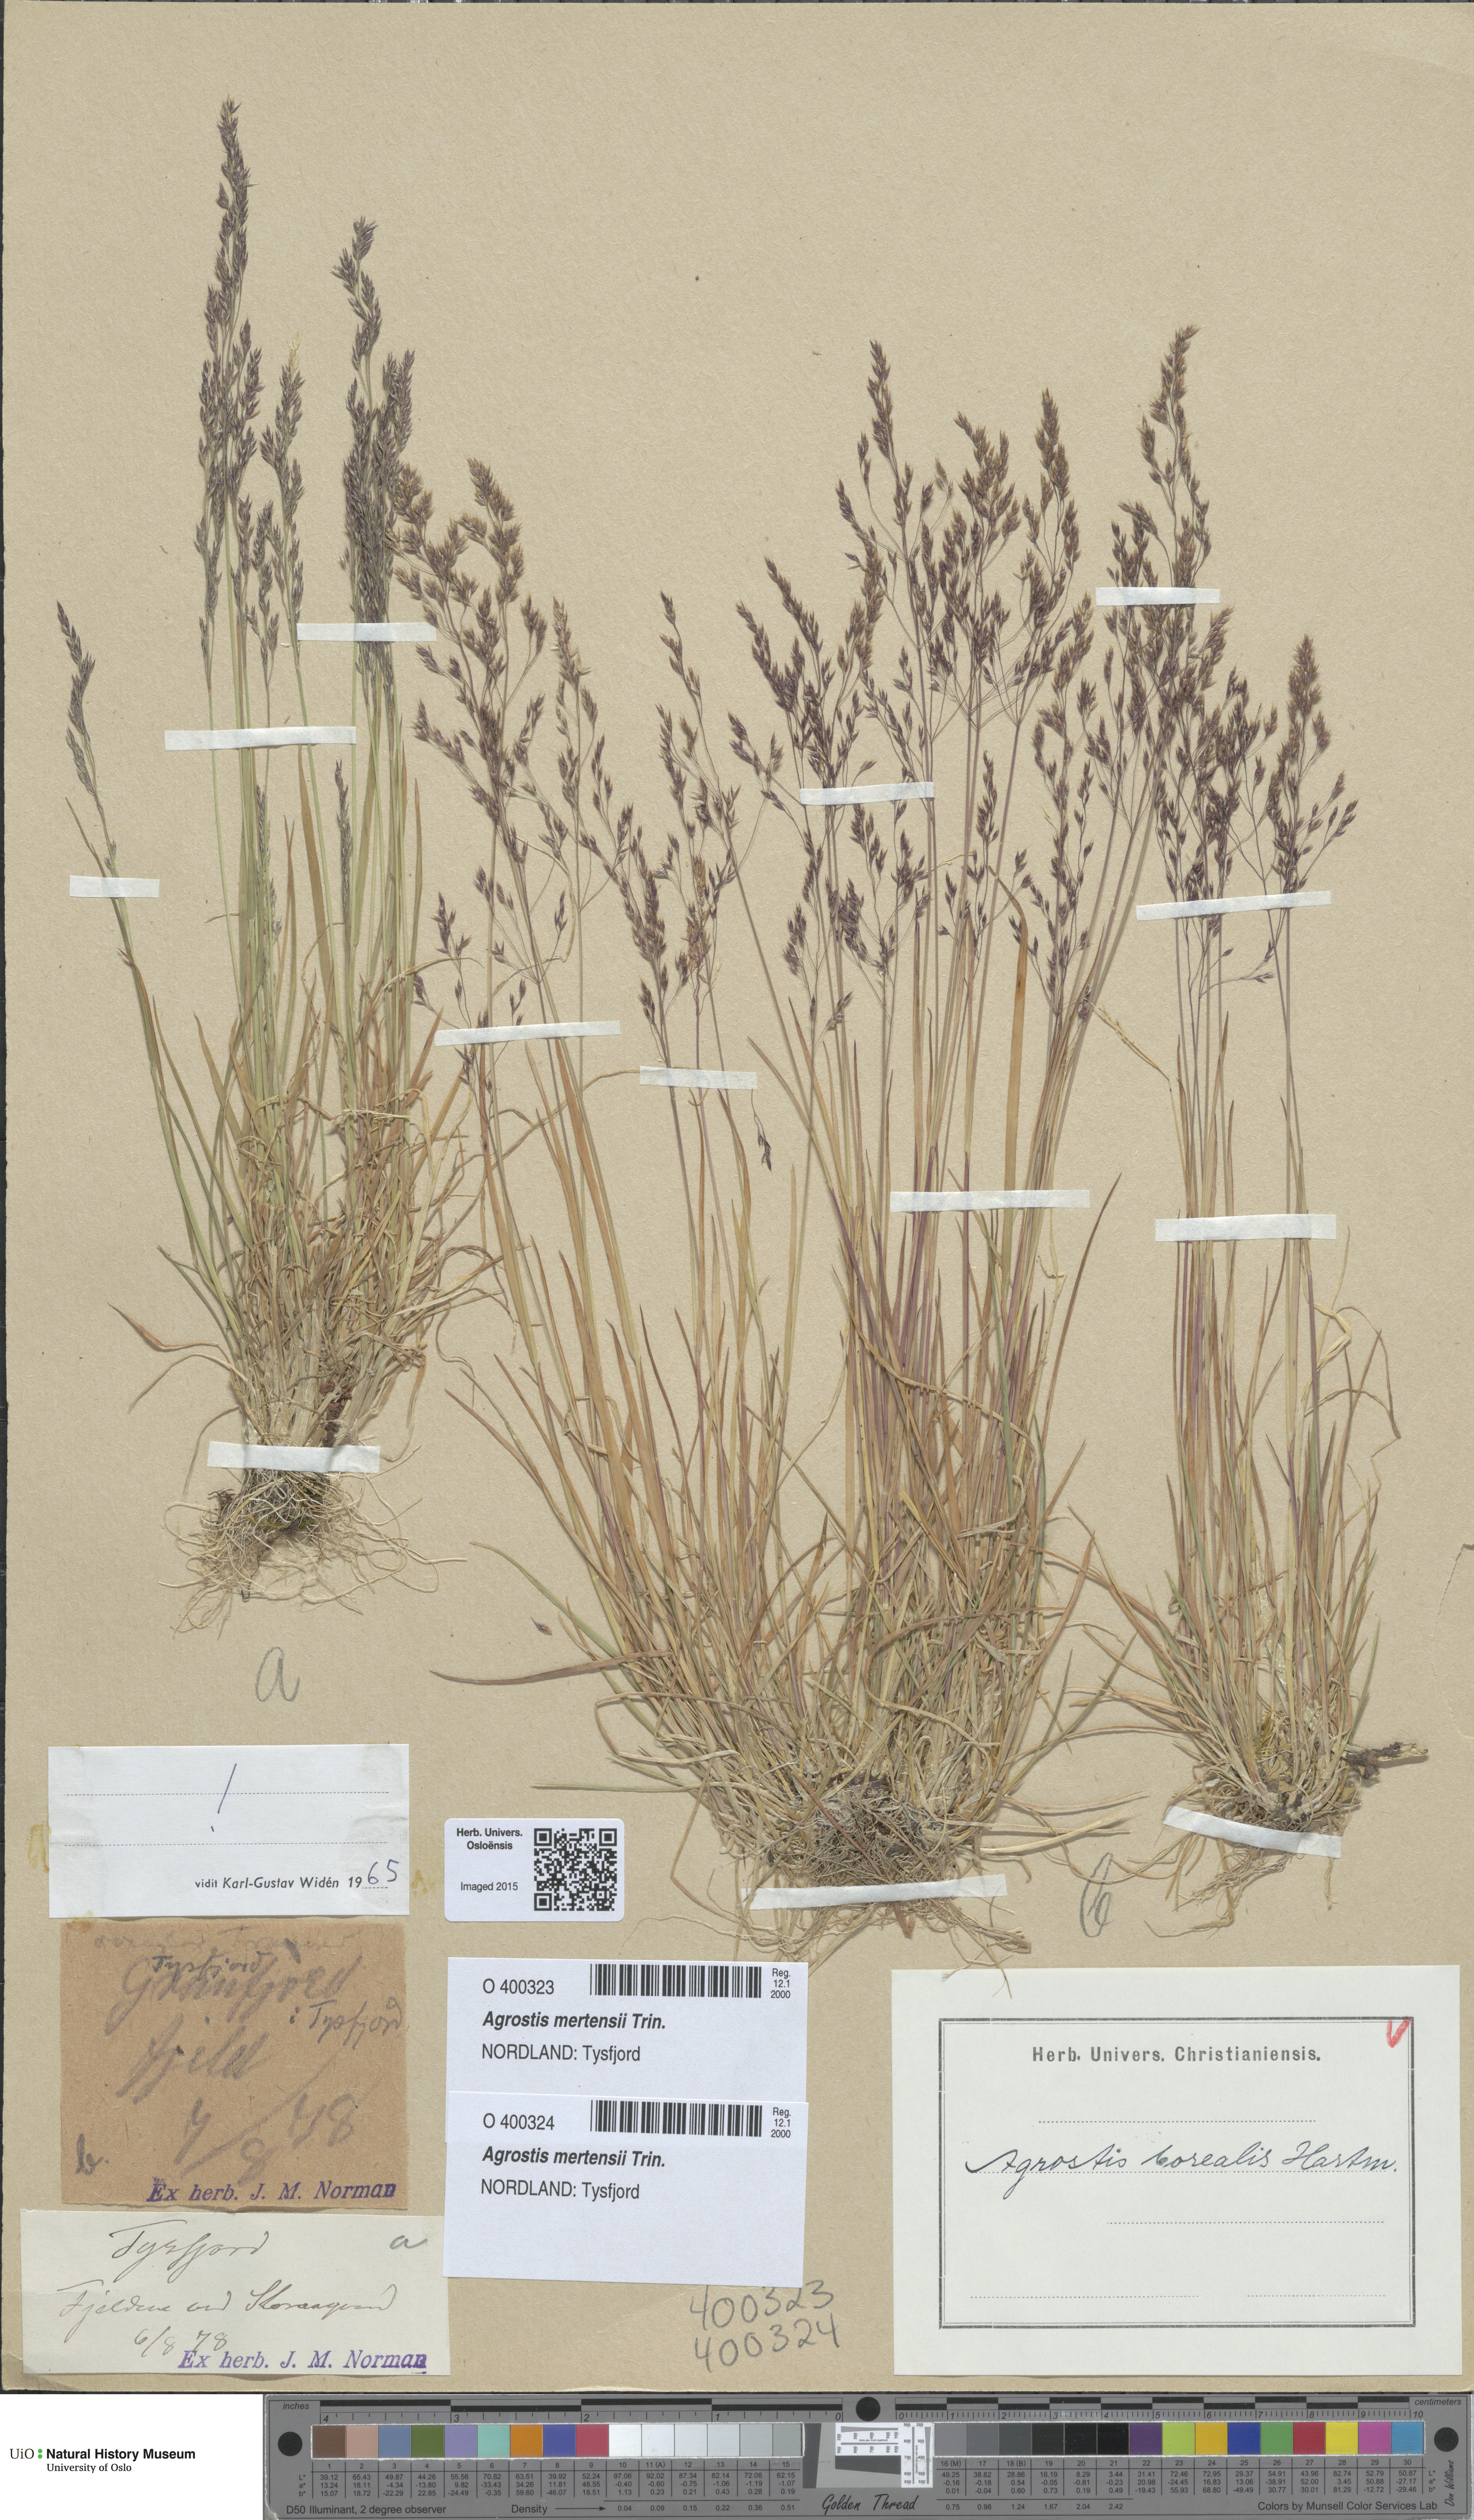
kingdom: Plantae
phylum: Tracheophyta
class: Liliopsida
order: Poales
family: Poaceae
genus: Agrostis
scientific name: Agrostis mertensii
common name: Northern bent
